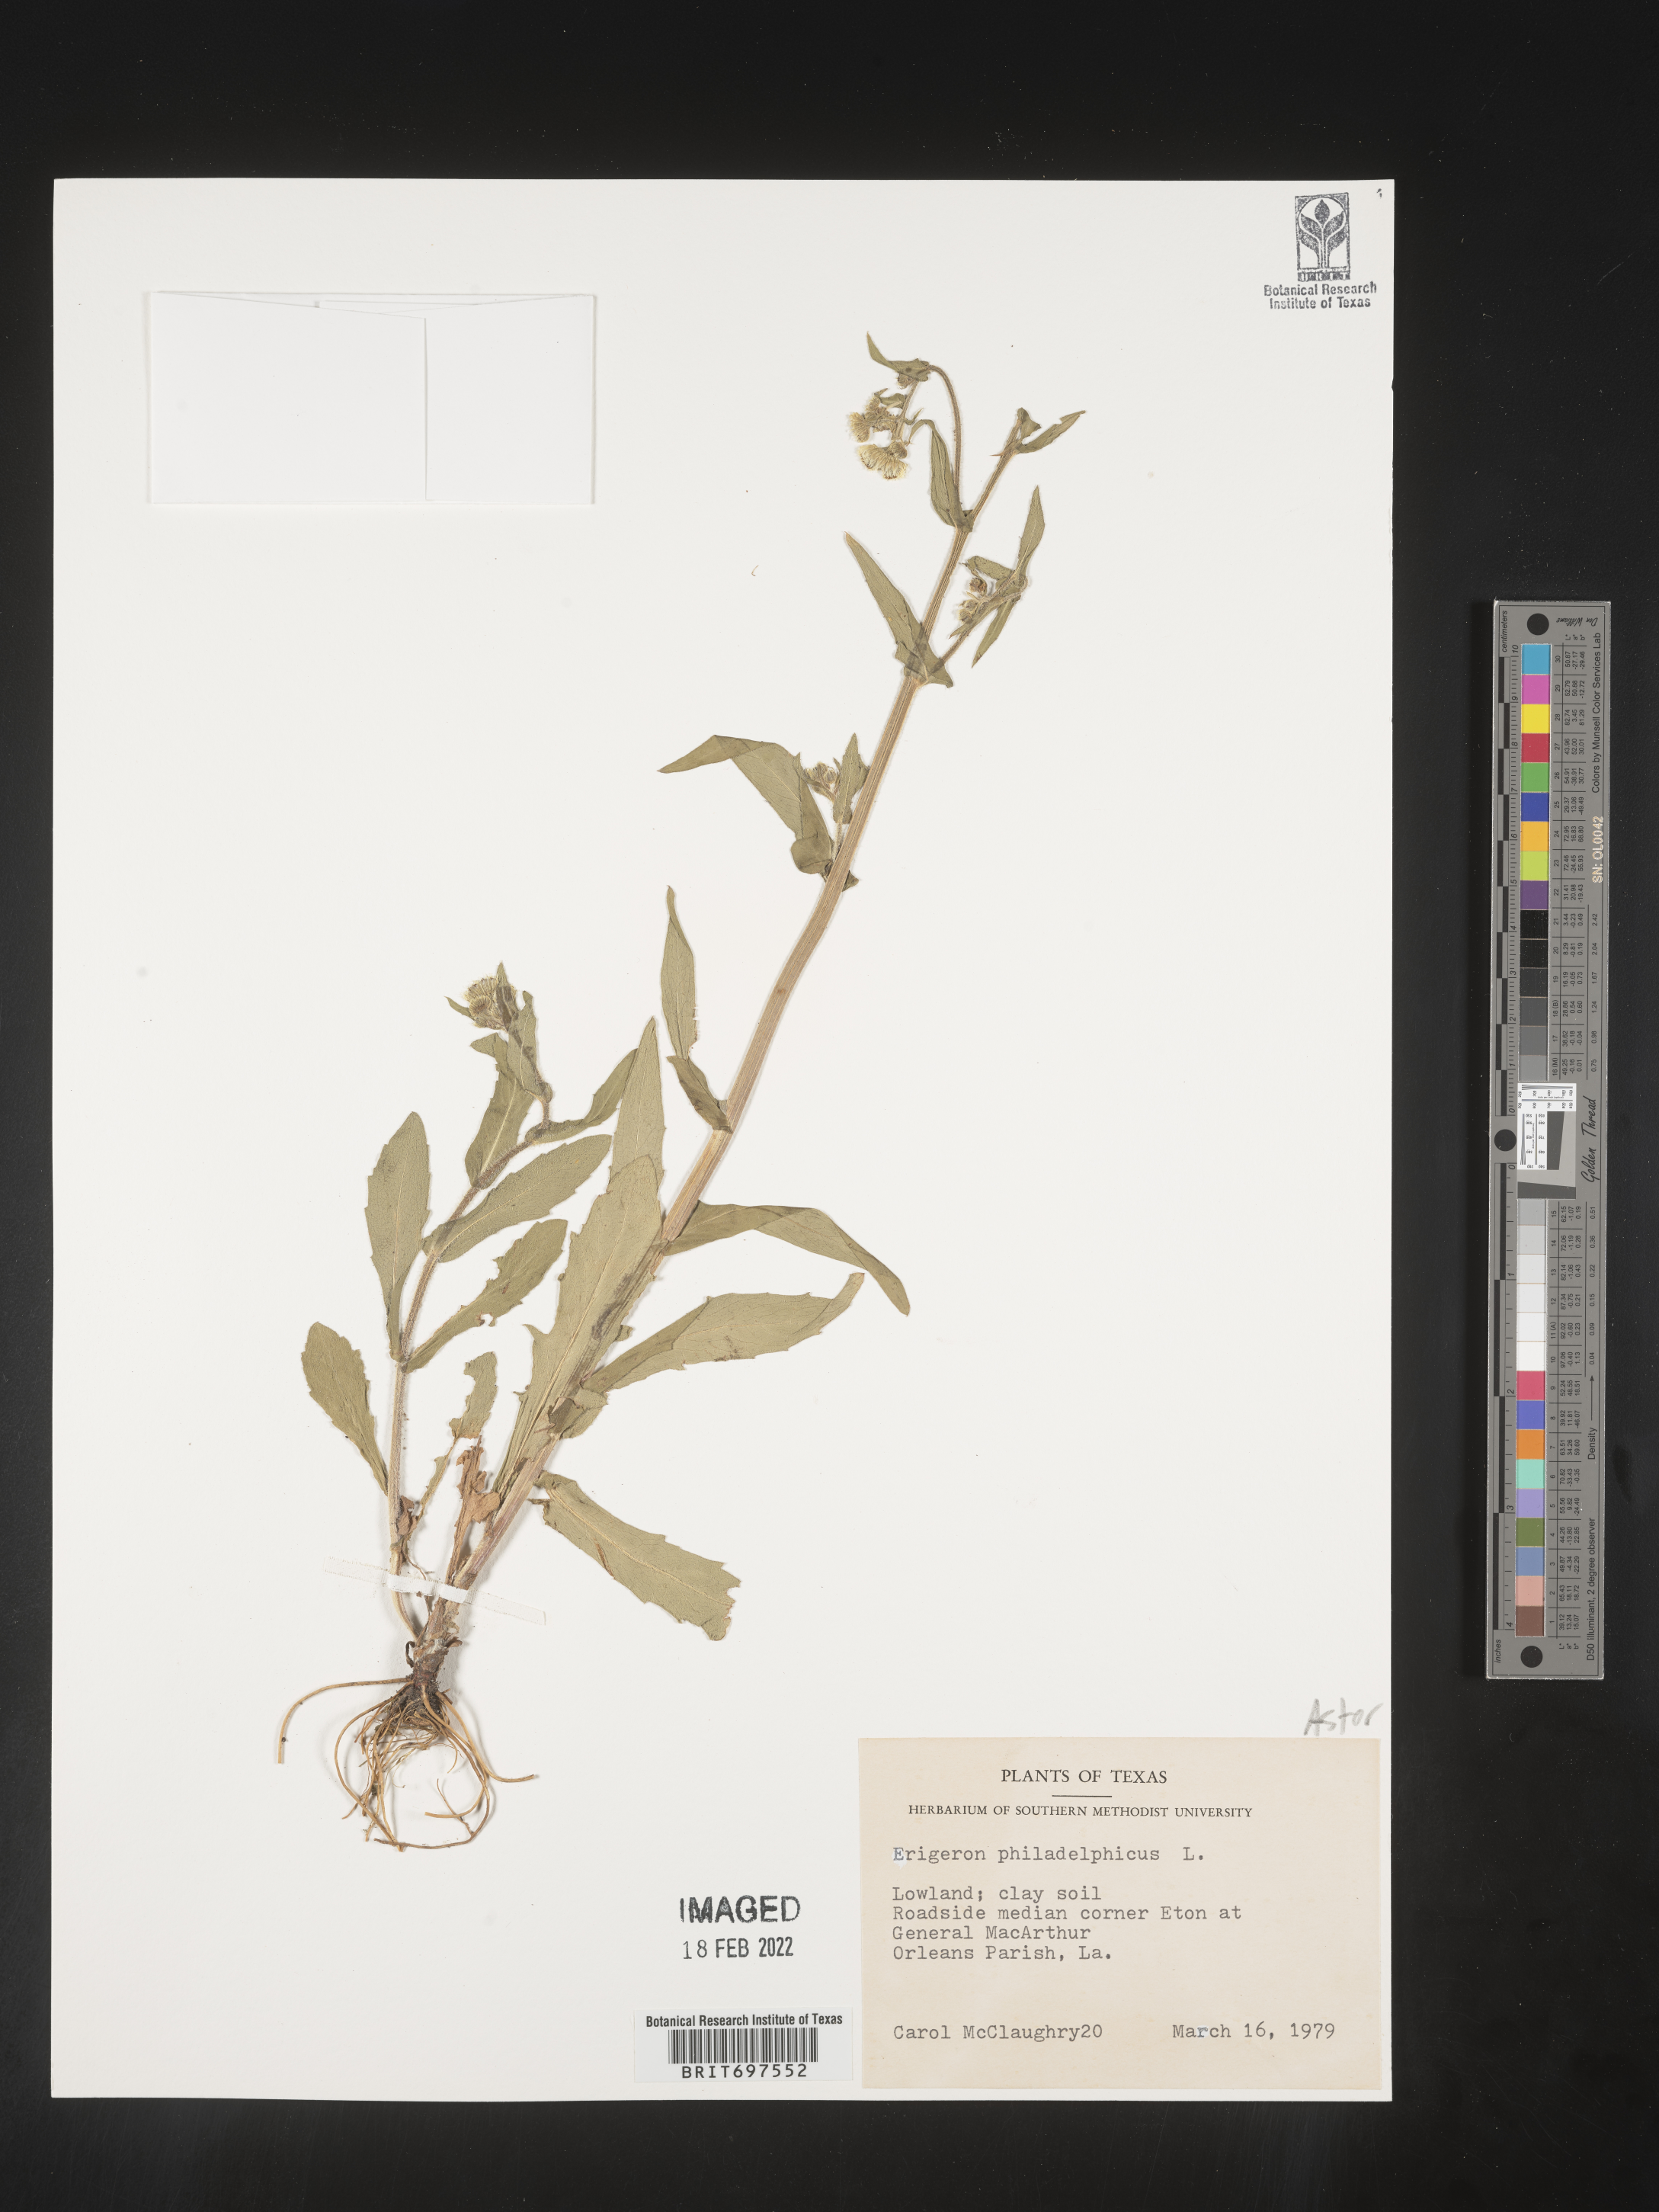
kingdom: Plantae
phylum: Tracheophyta
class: Magnoliopsida
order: Asterales
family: Asteraceae
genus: Erigeron
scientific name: Erigeron philadelphicus
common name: Robin's-plantain
